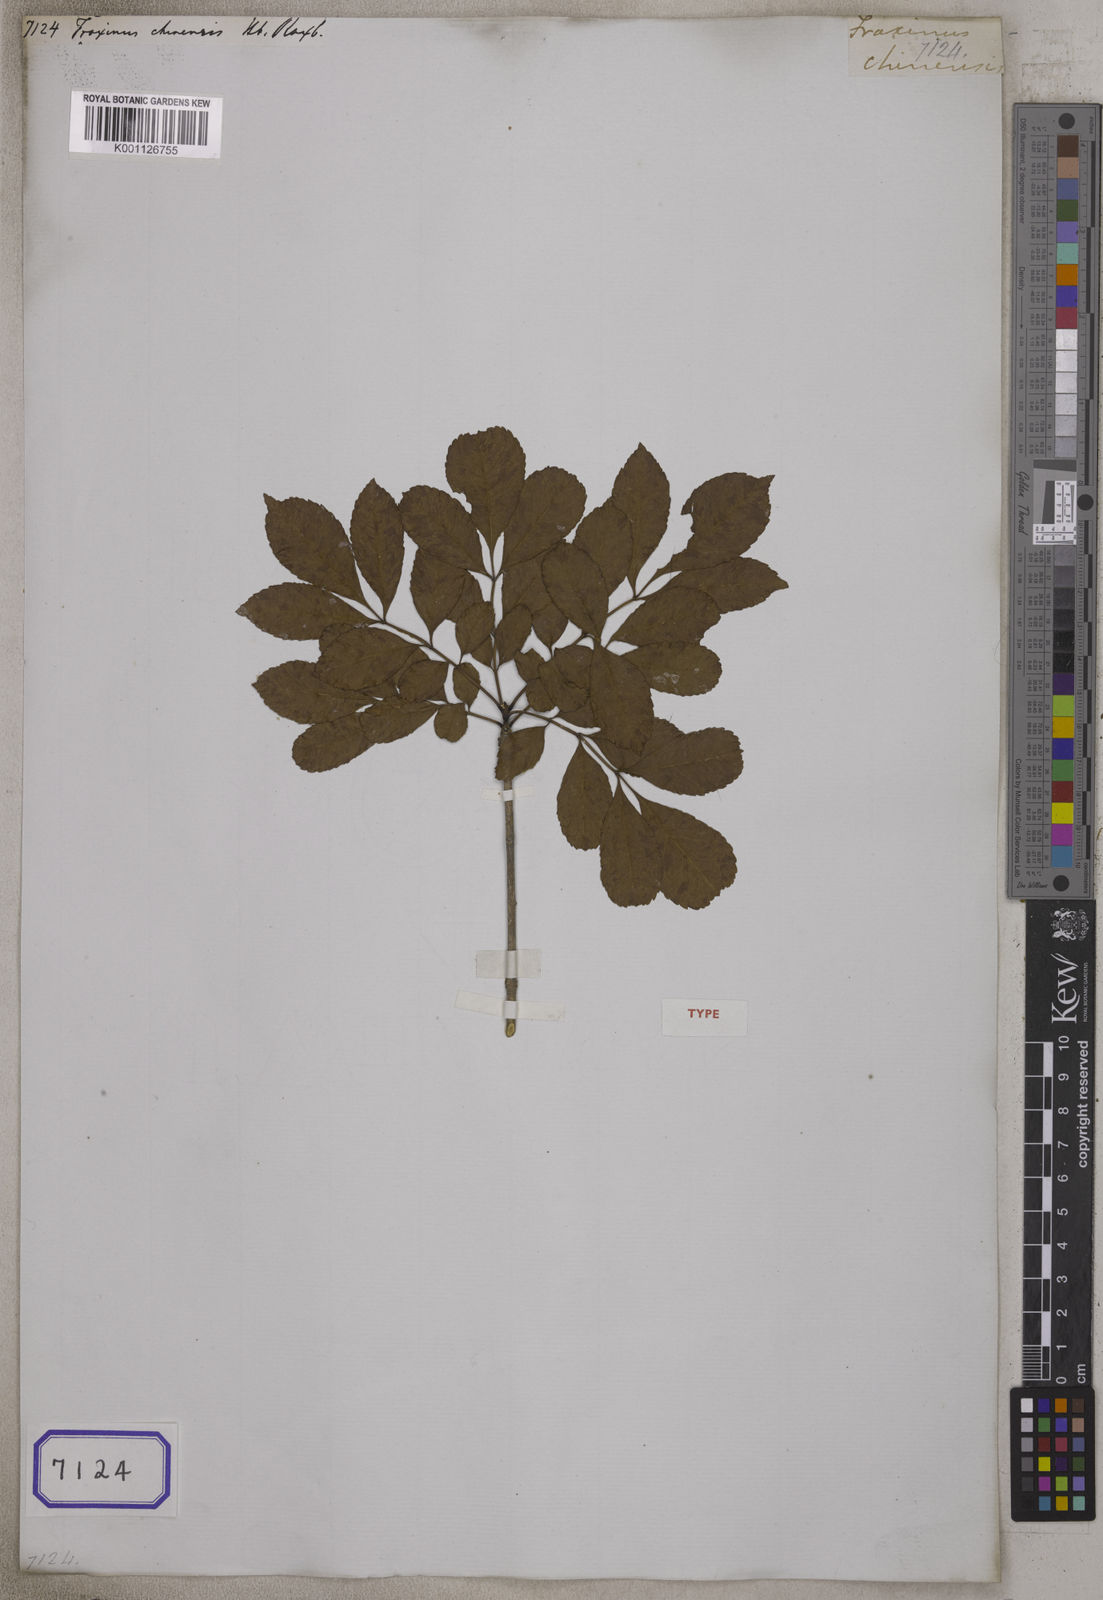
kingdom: Plantae
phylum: Tracheophyta
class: Magnoliopsida
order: Lamiales
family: Oleaceae
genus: Fraxinus
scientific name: Fraxinus chinensis
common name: Chinese ash
